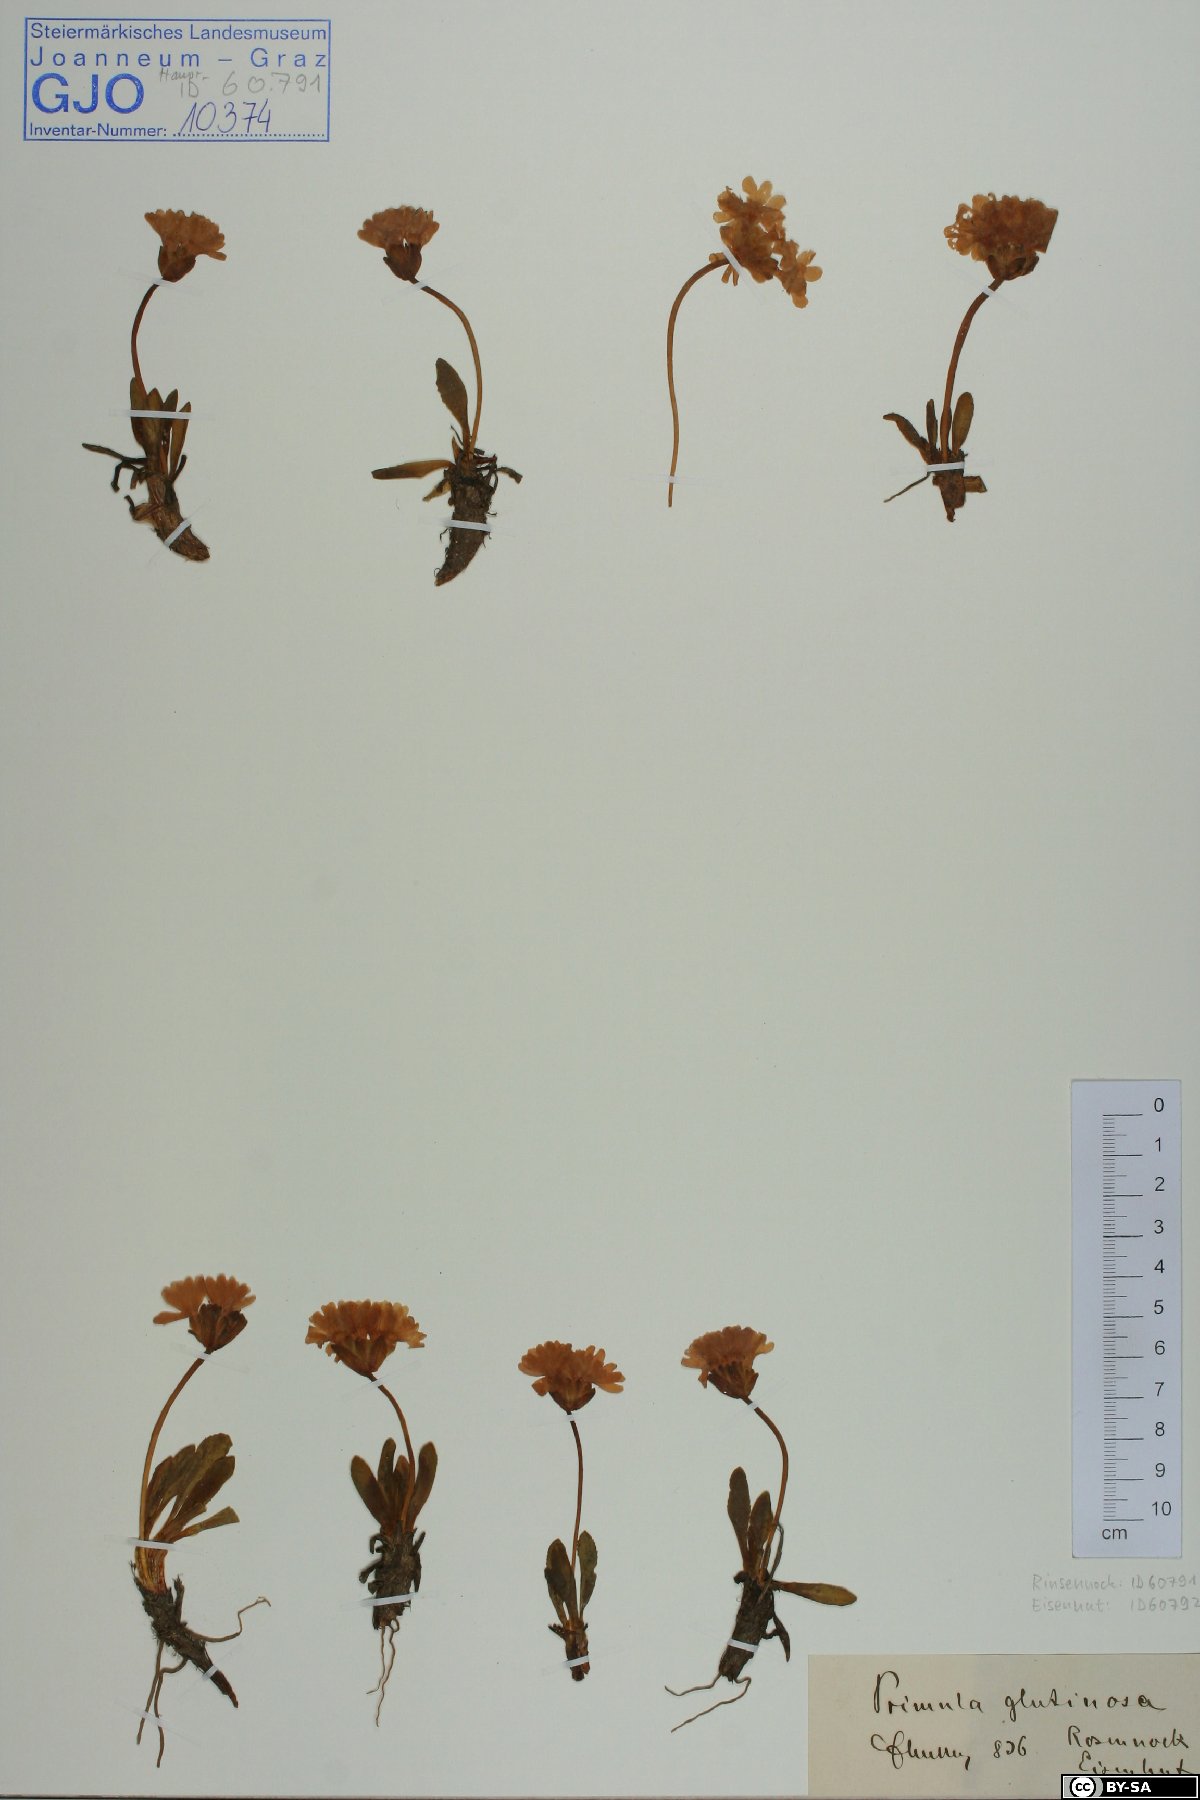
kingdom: Plantae
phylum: Tracheophyta
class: Magnoliopsida
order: Ericales
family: Primulaceae
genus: Primula
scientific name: Primula glutinosa
